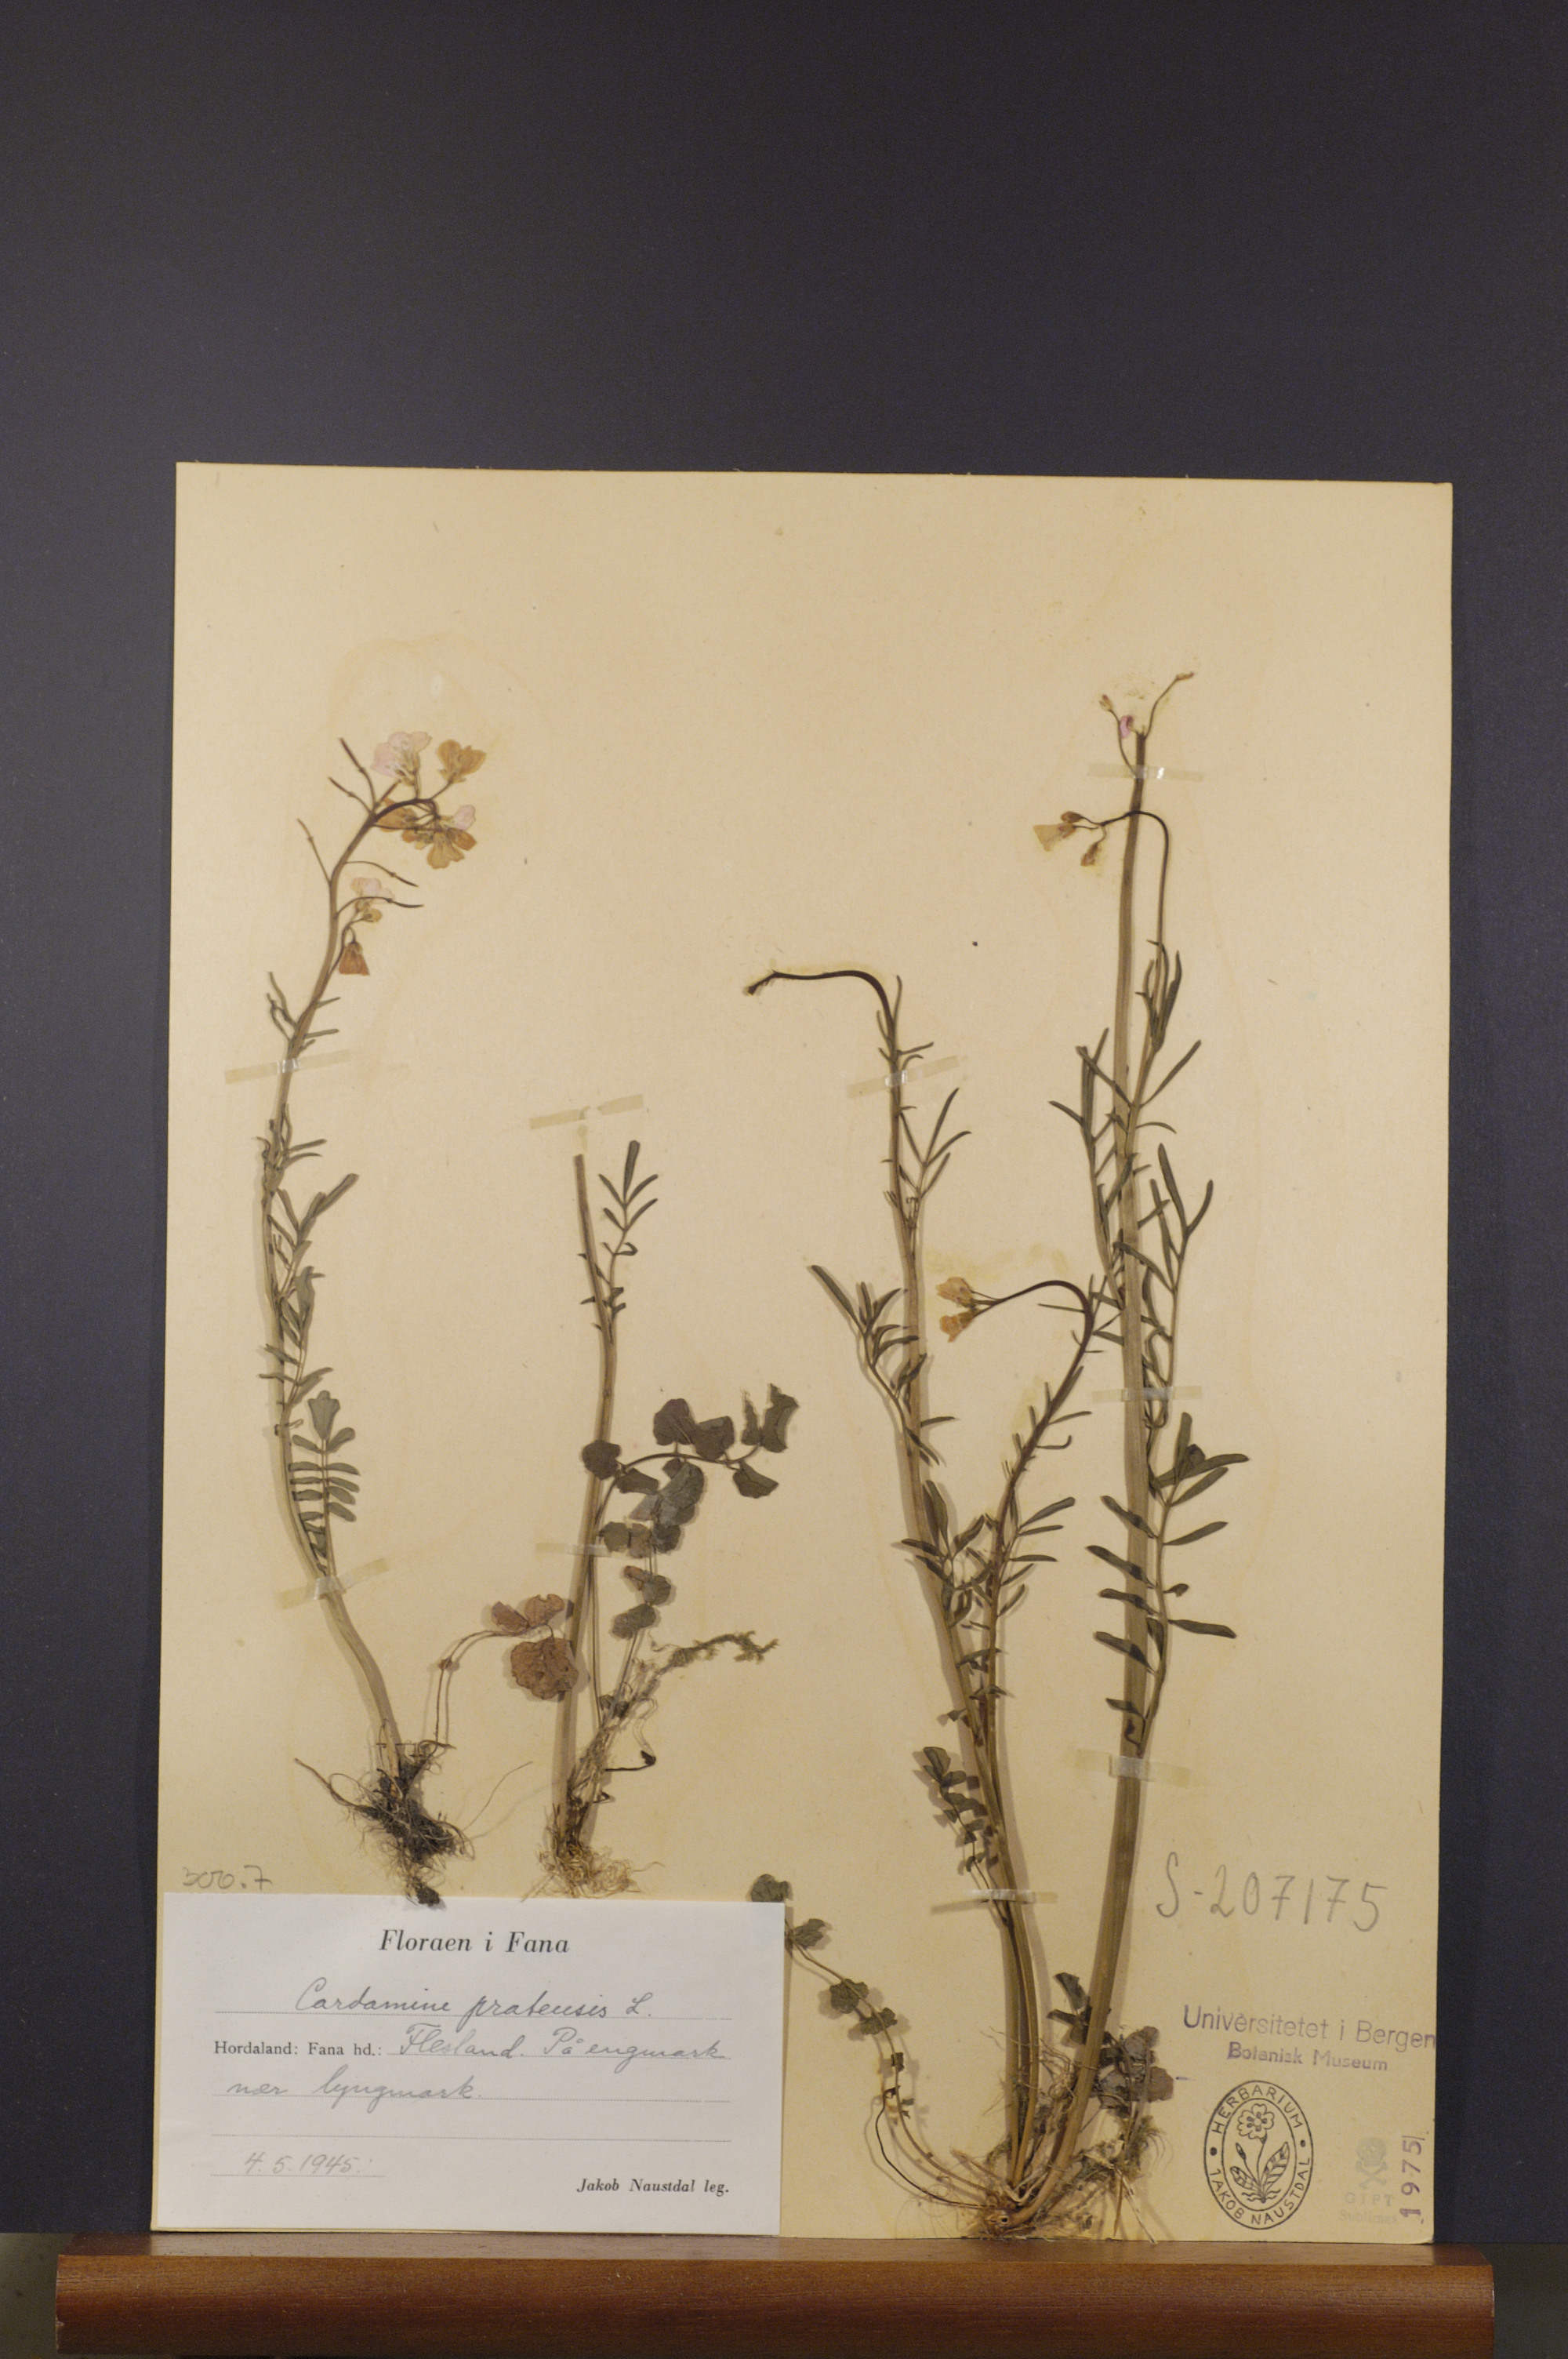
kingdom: Plantae
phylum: Tracheophyta
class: Magnoliopsida
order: Brassicales
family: Brassicaceae
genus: Cardamine
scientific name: Cardamine pratensis
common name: Cuckoo flower
